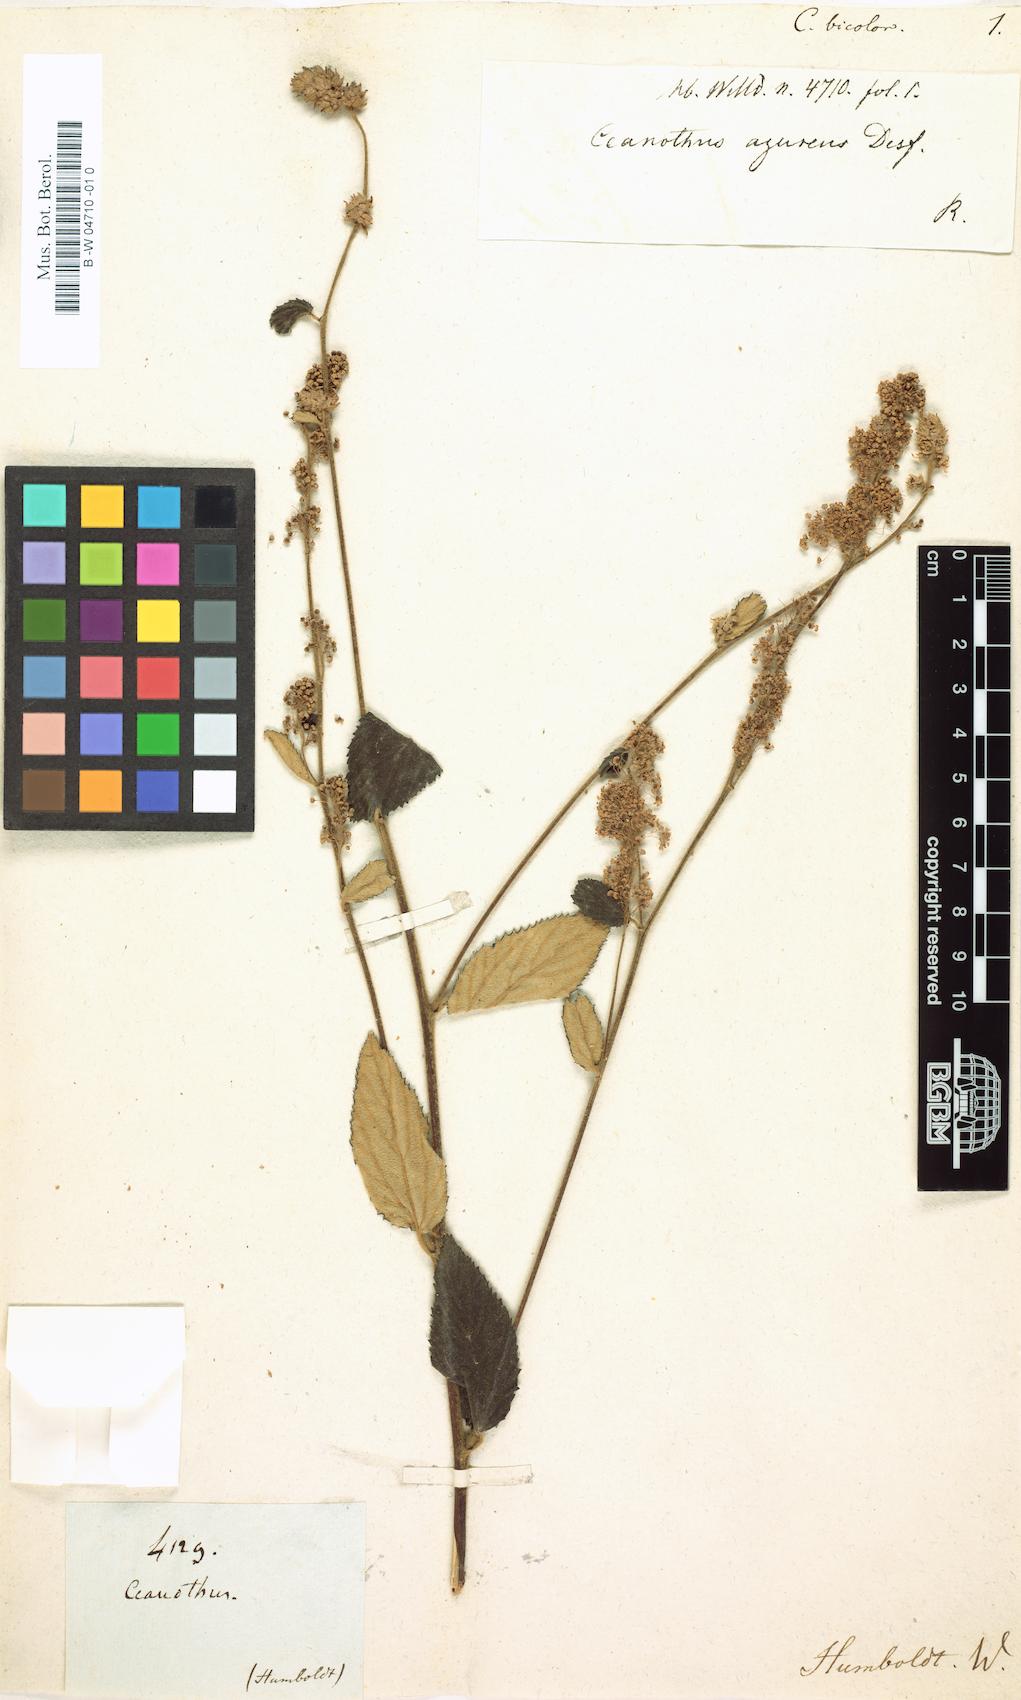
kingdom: Plantae
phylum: Tracheophyta
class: Magnoliopsida
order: Rosales
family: Rhamnaceae
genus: Ceanothus
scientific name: Ceanothus caeruleus
